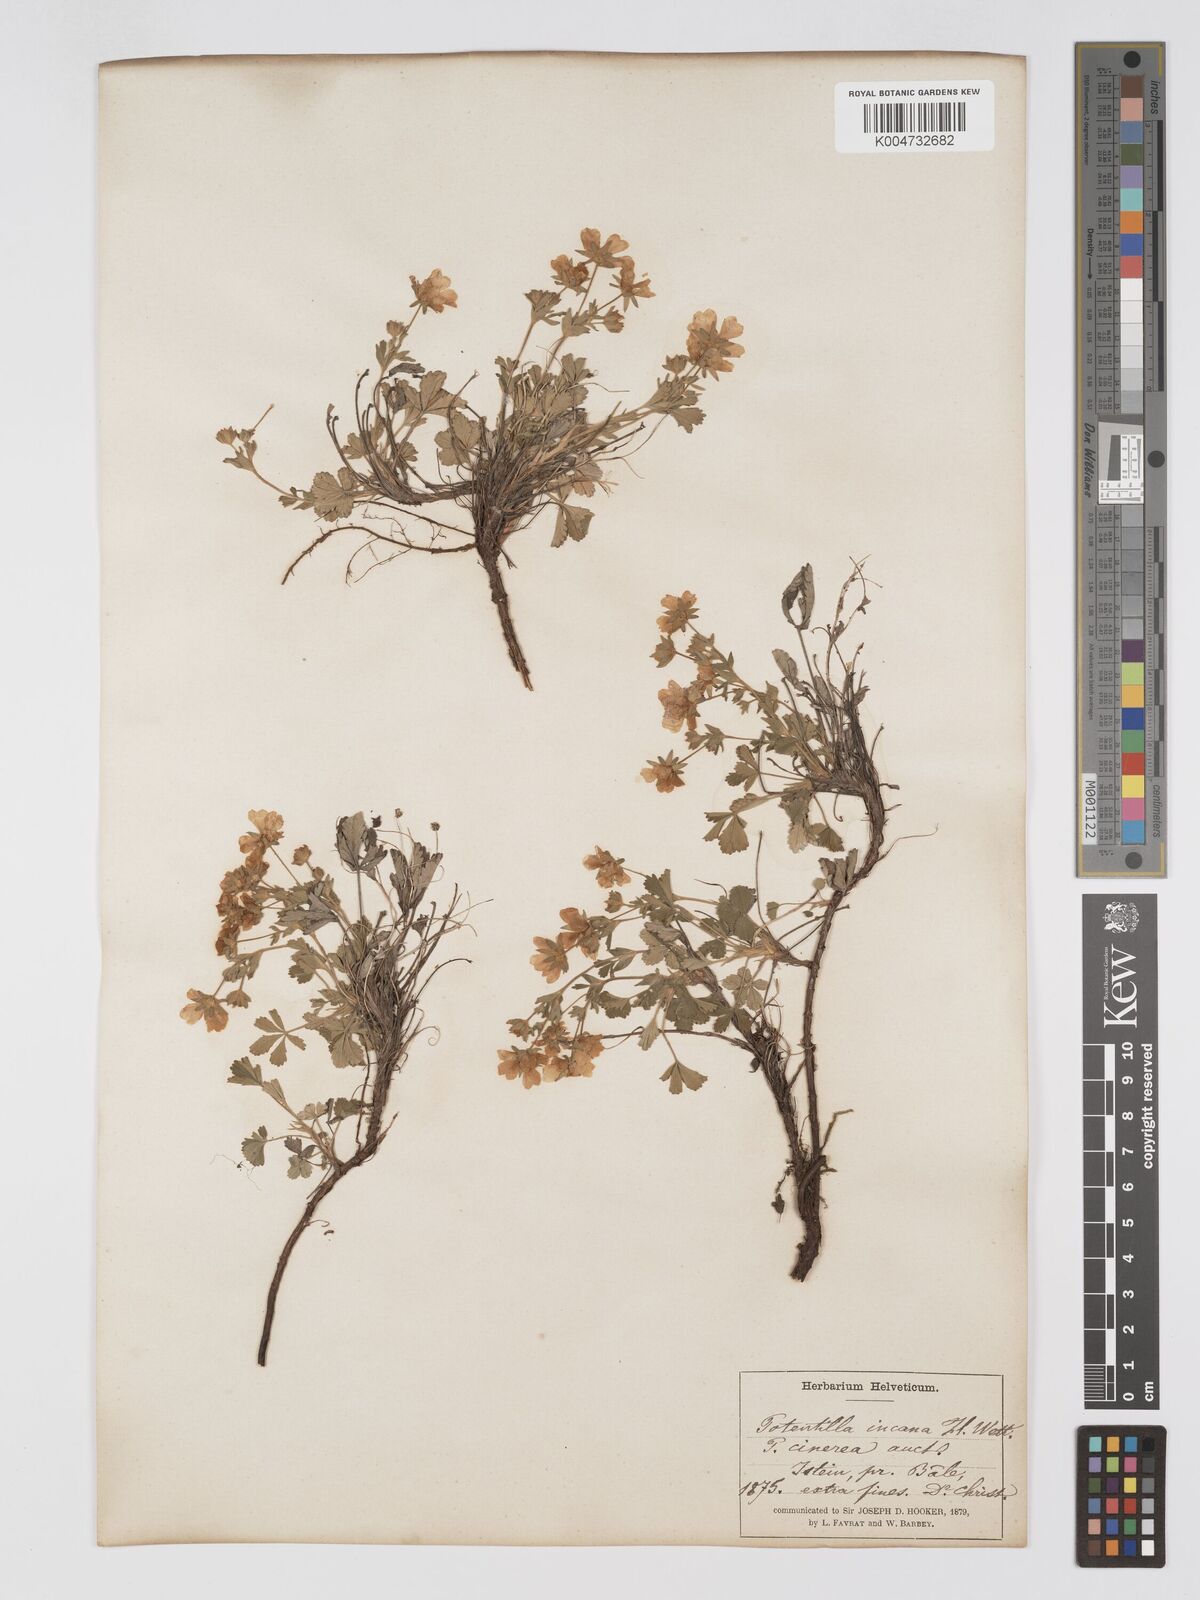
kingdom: Plantae
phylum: Tracheophyta
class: Magnoliopsida
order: Rosales
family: Rosaceae
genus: Potentilla
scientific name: Potentilla cinerea
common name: Ashy cinquefoil
